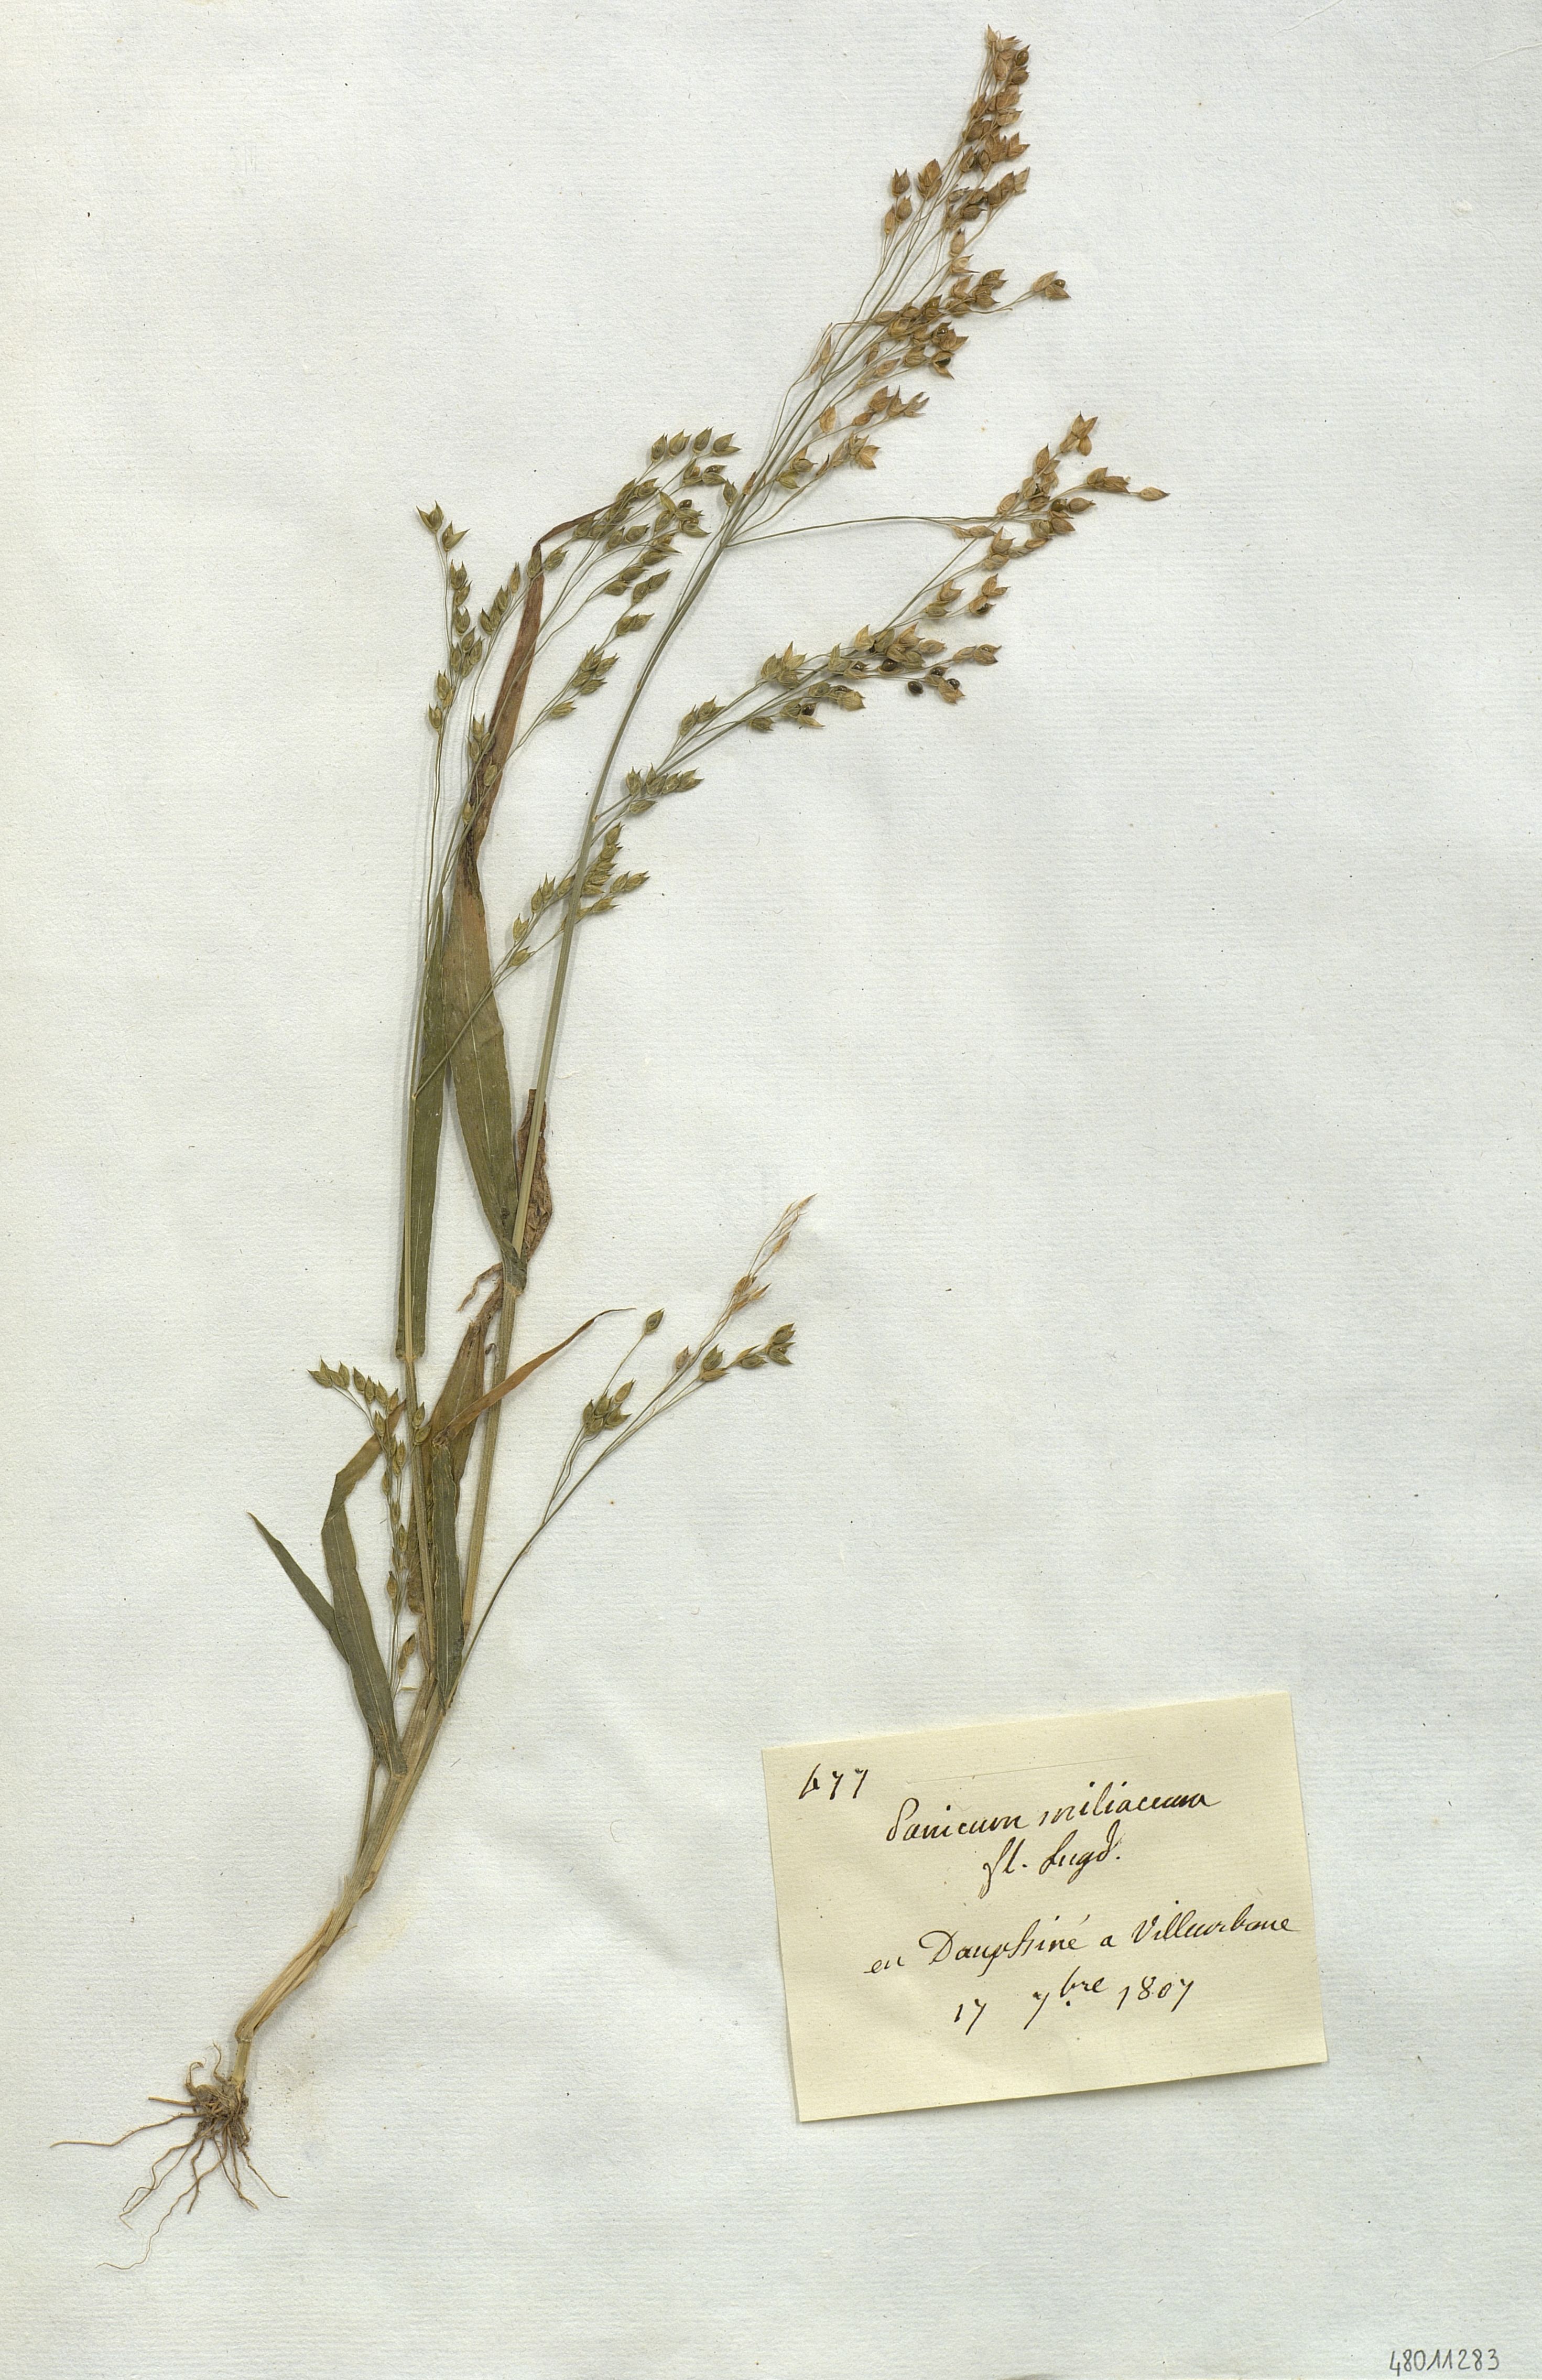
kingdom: Plantae
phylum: Tracheophyta
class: Liliopsida
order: Poales
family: Poaceae
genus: Panicum
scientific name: Panicum miliaceum
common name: Common millet
